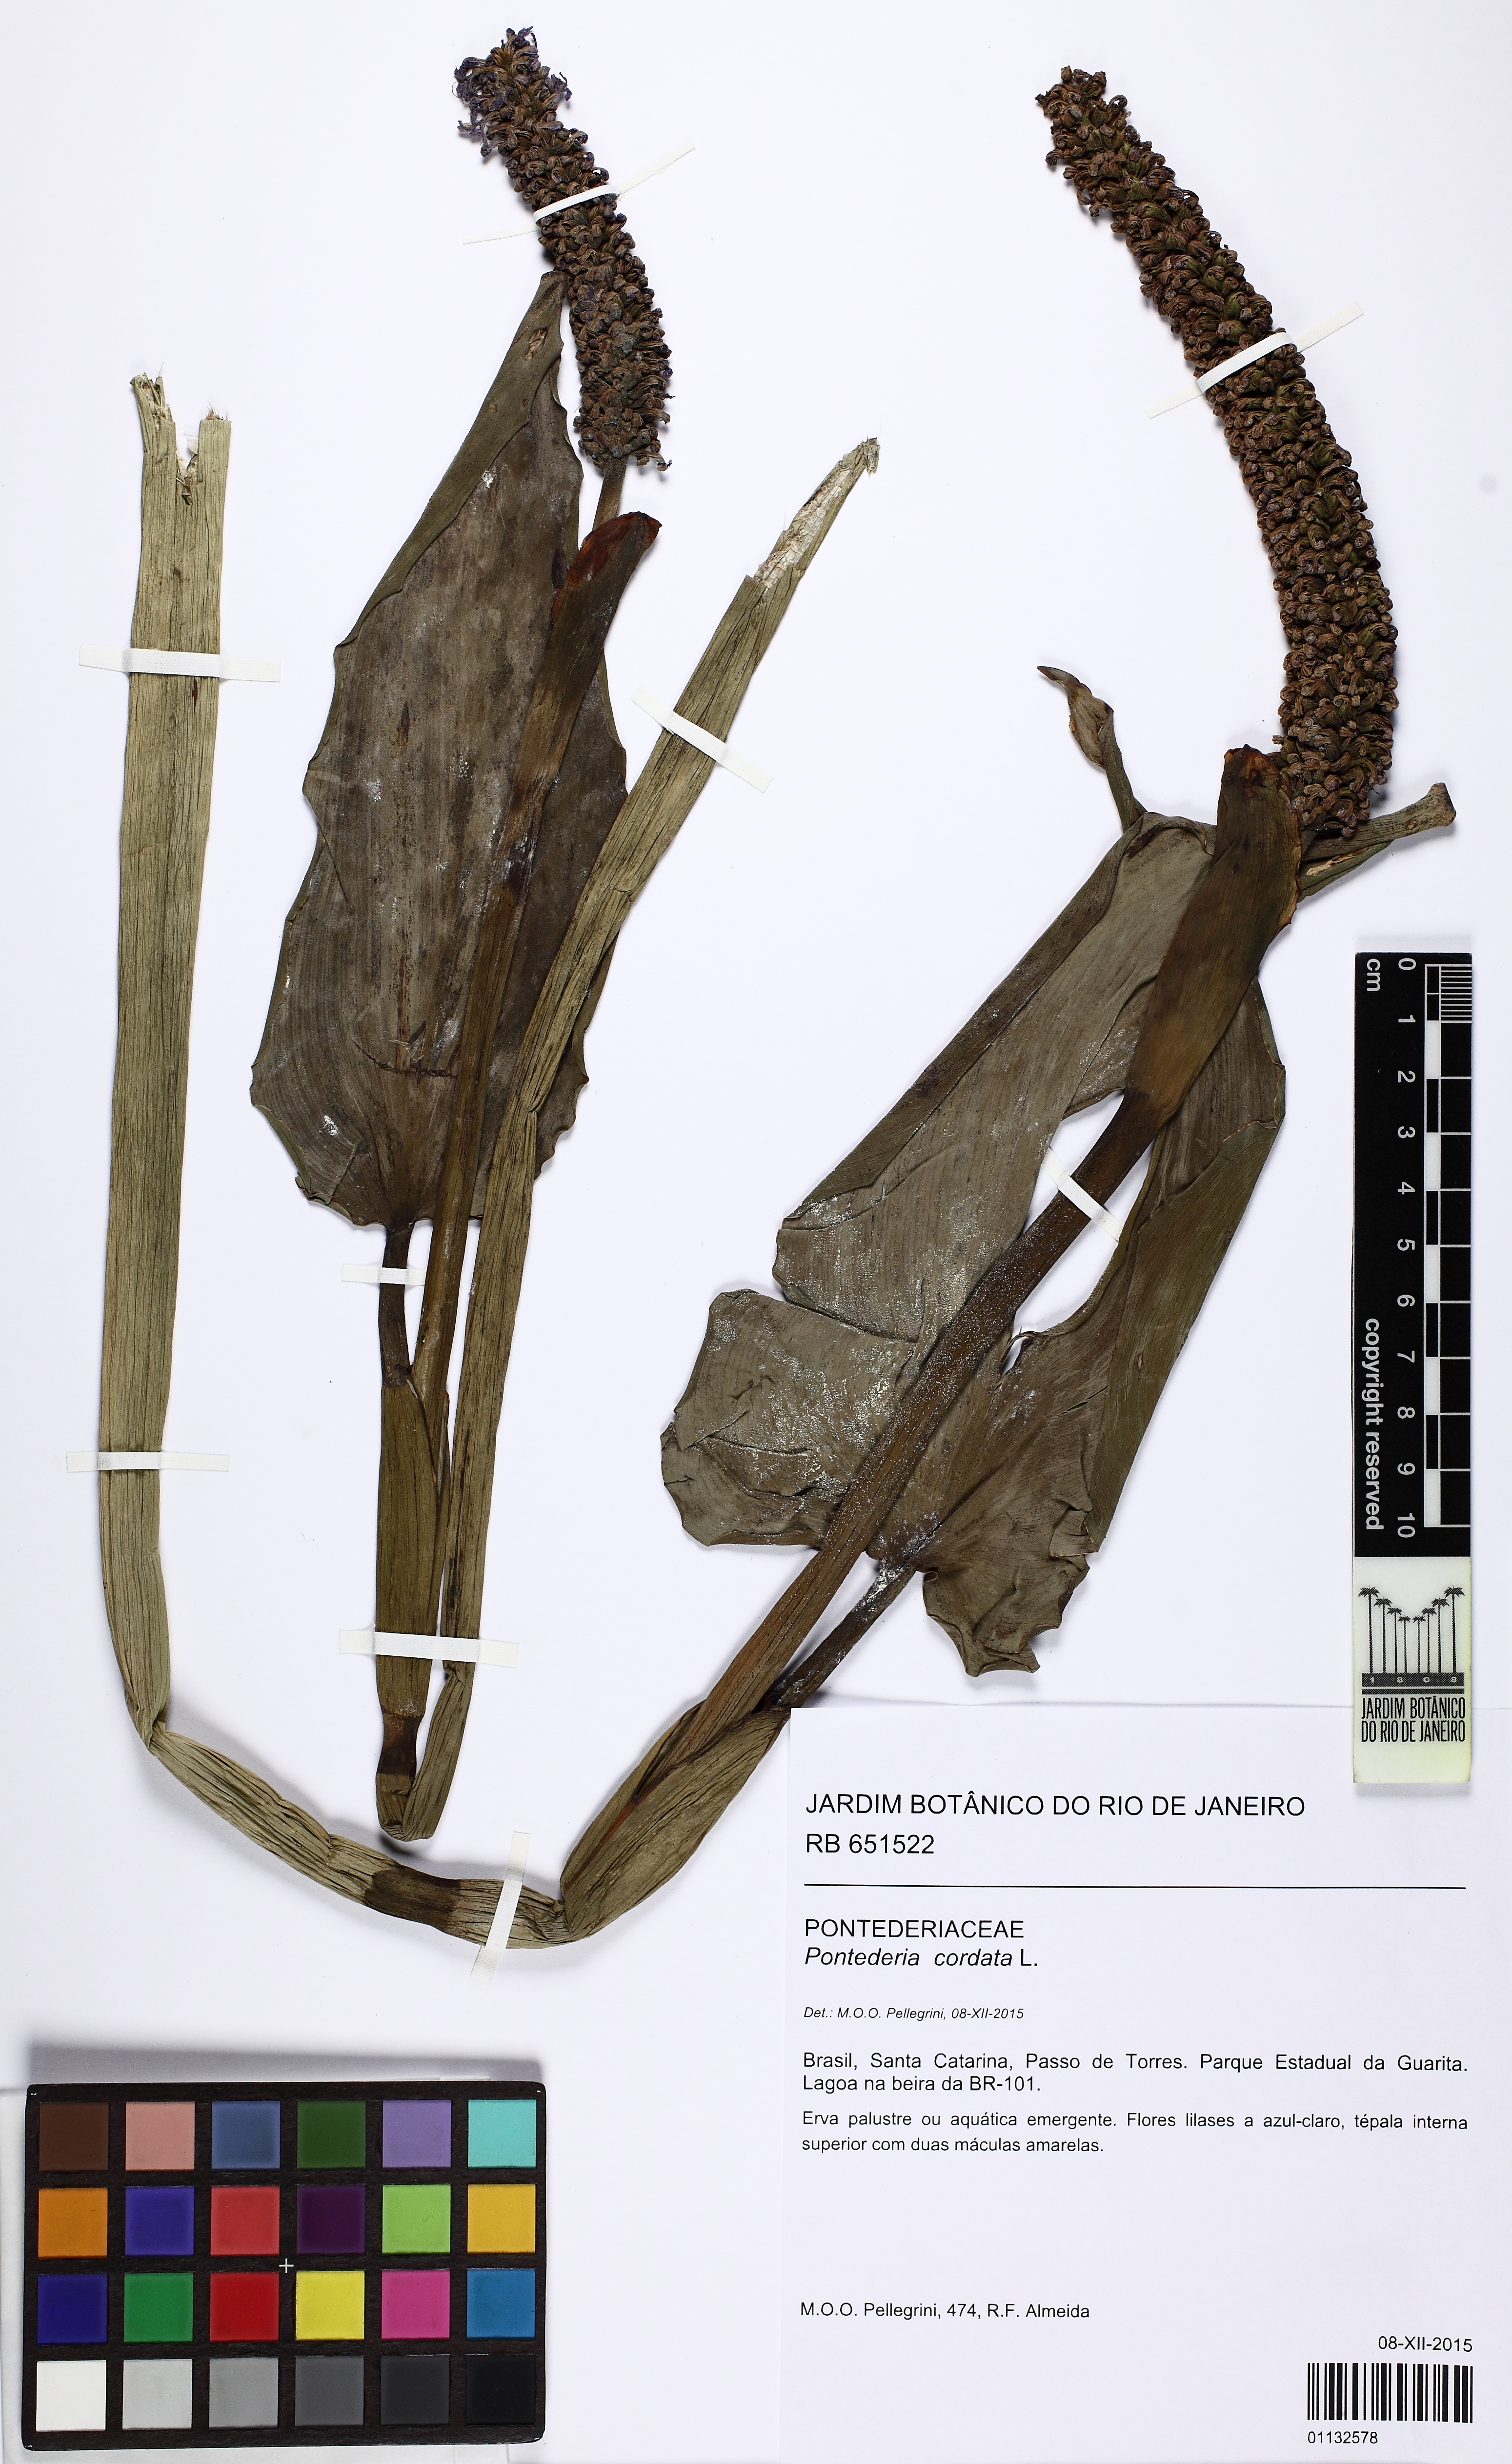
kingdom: Plantae
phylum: Tracheophyta
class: Liliopsida
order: Commelinales
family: Pontederiaceae
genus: Pontederia
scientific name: Pontederia cordata
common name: Pickerelweed
